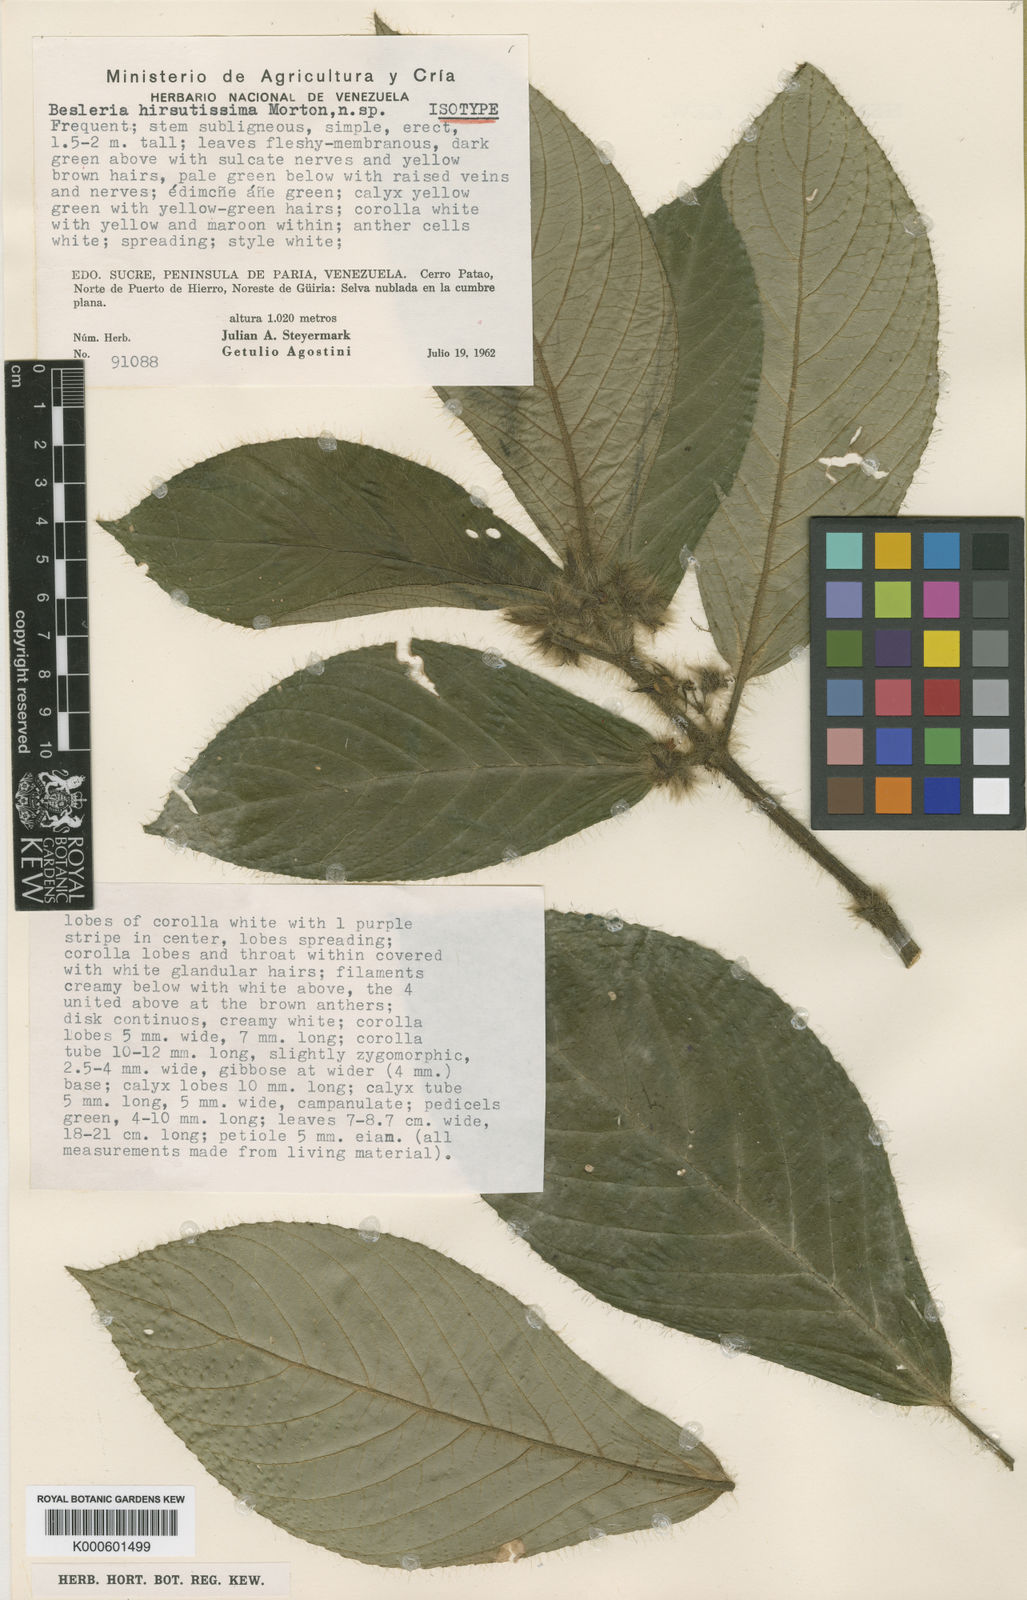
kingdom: Plantae
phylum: Tracheophyta
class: Magnoliopsida
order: Lamiales
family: Gesneriaceae
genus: Besleria
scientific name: Besleria hirsutissima
